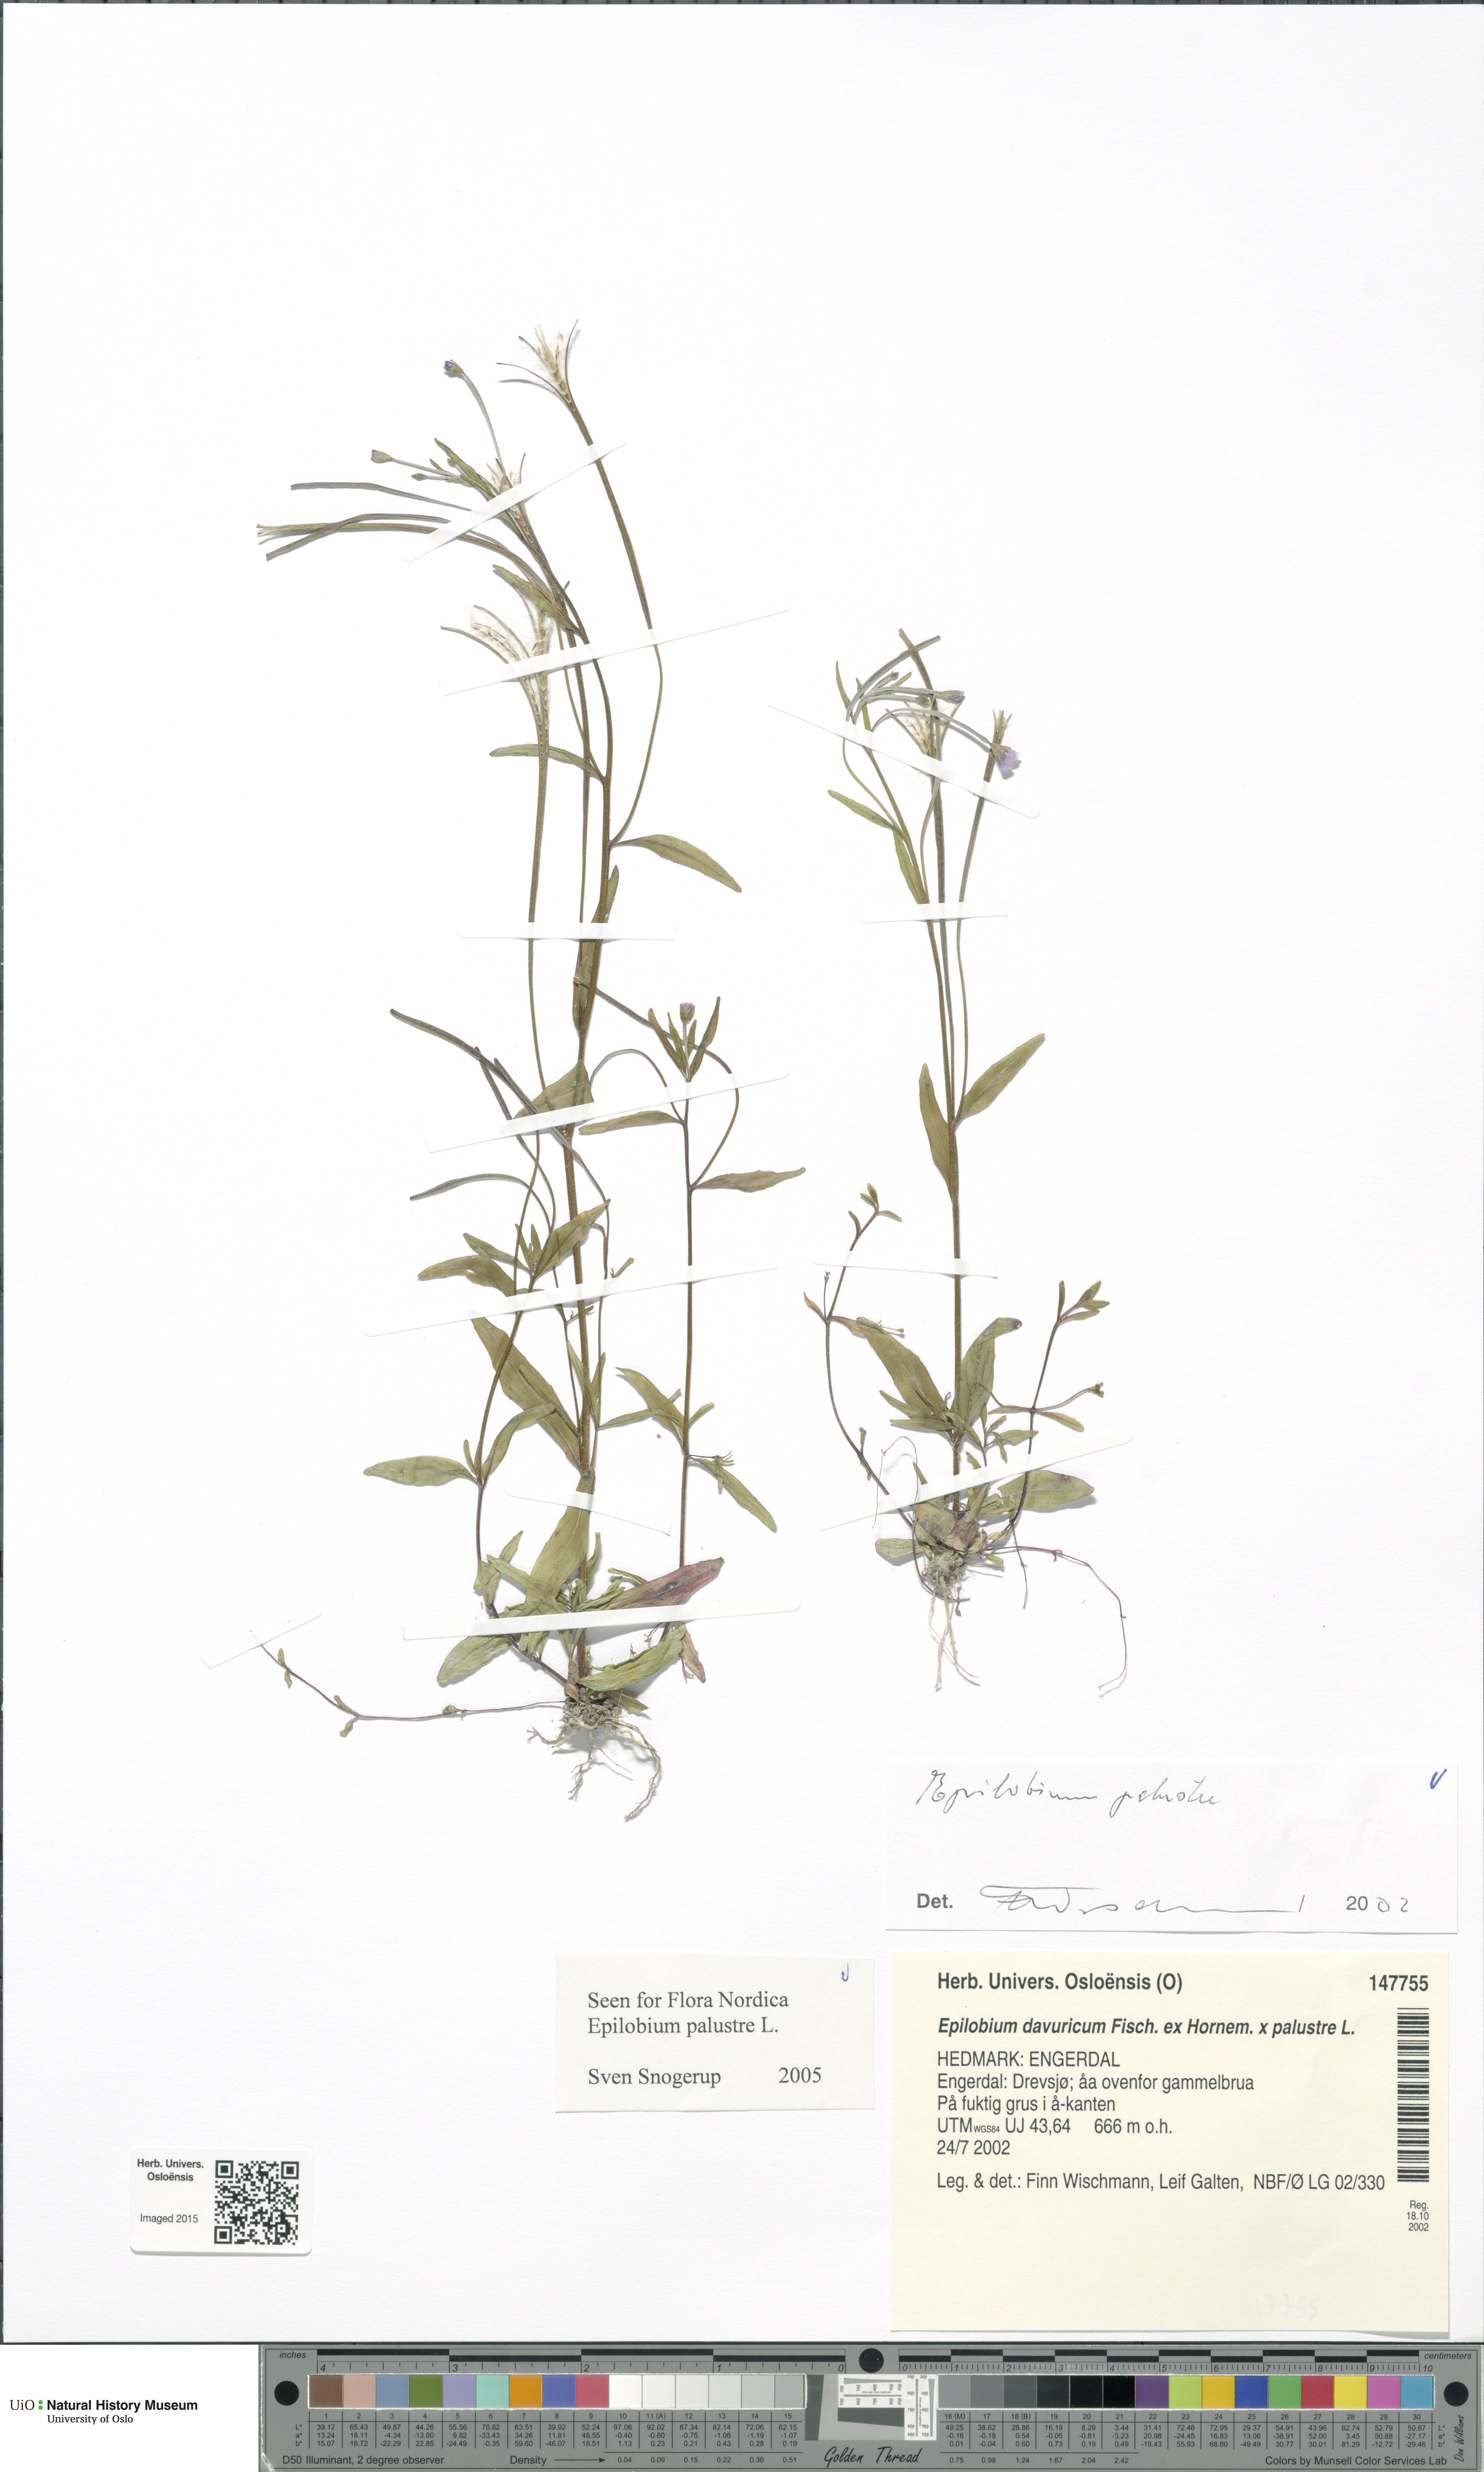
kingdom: Plantae
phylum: Tracheophyta
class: Magnoliopsida
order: Myrtales
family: Onagraceae
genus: Epilobium
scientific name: Epilobium palustre
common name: Marsh willowherb
